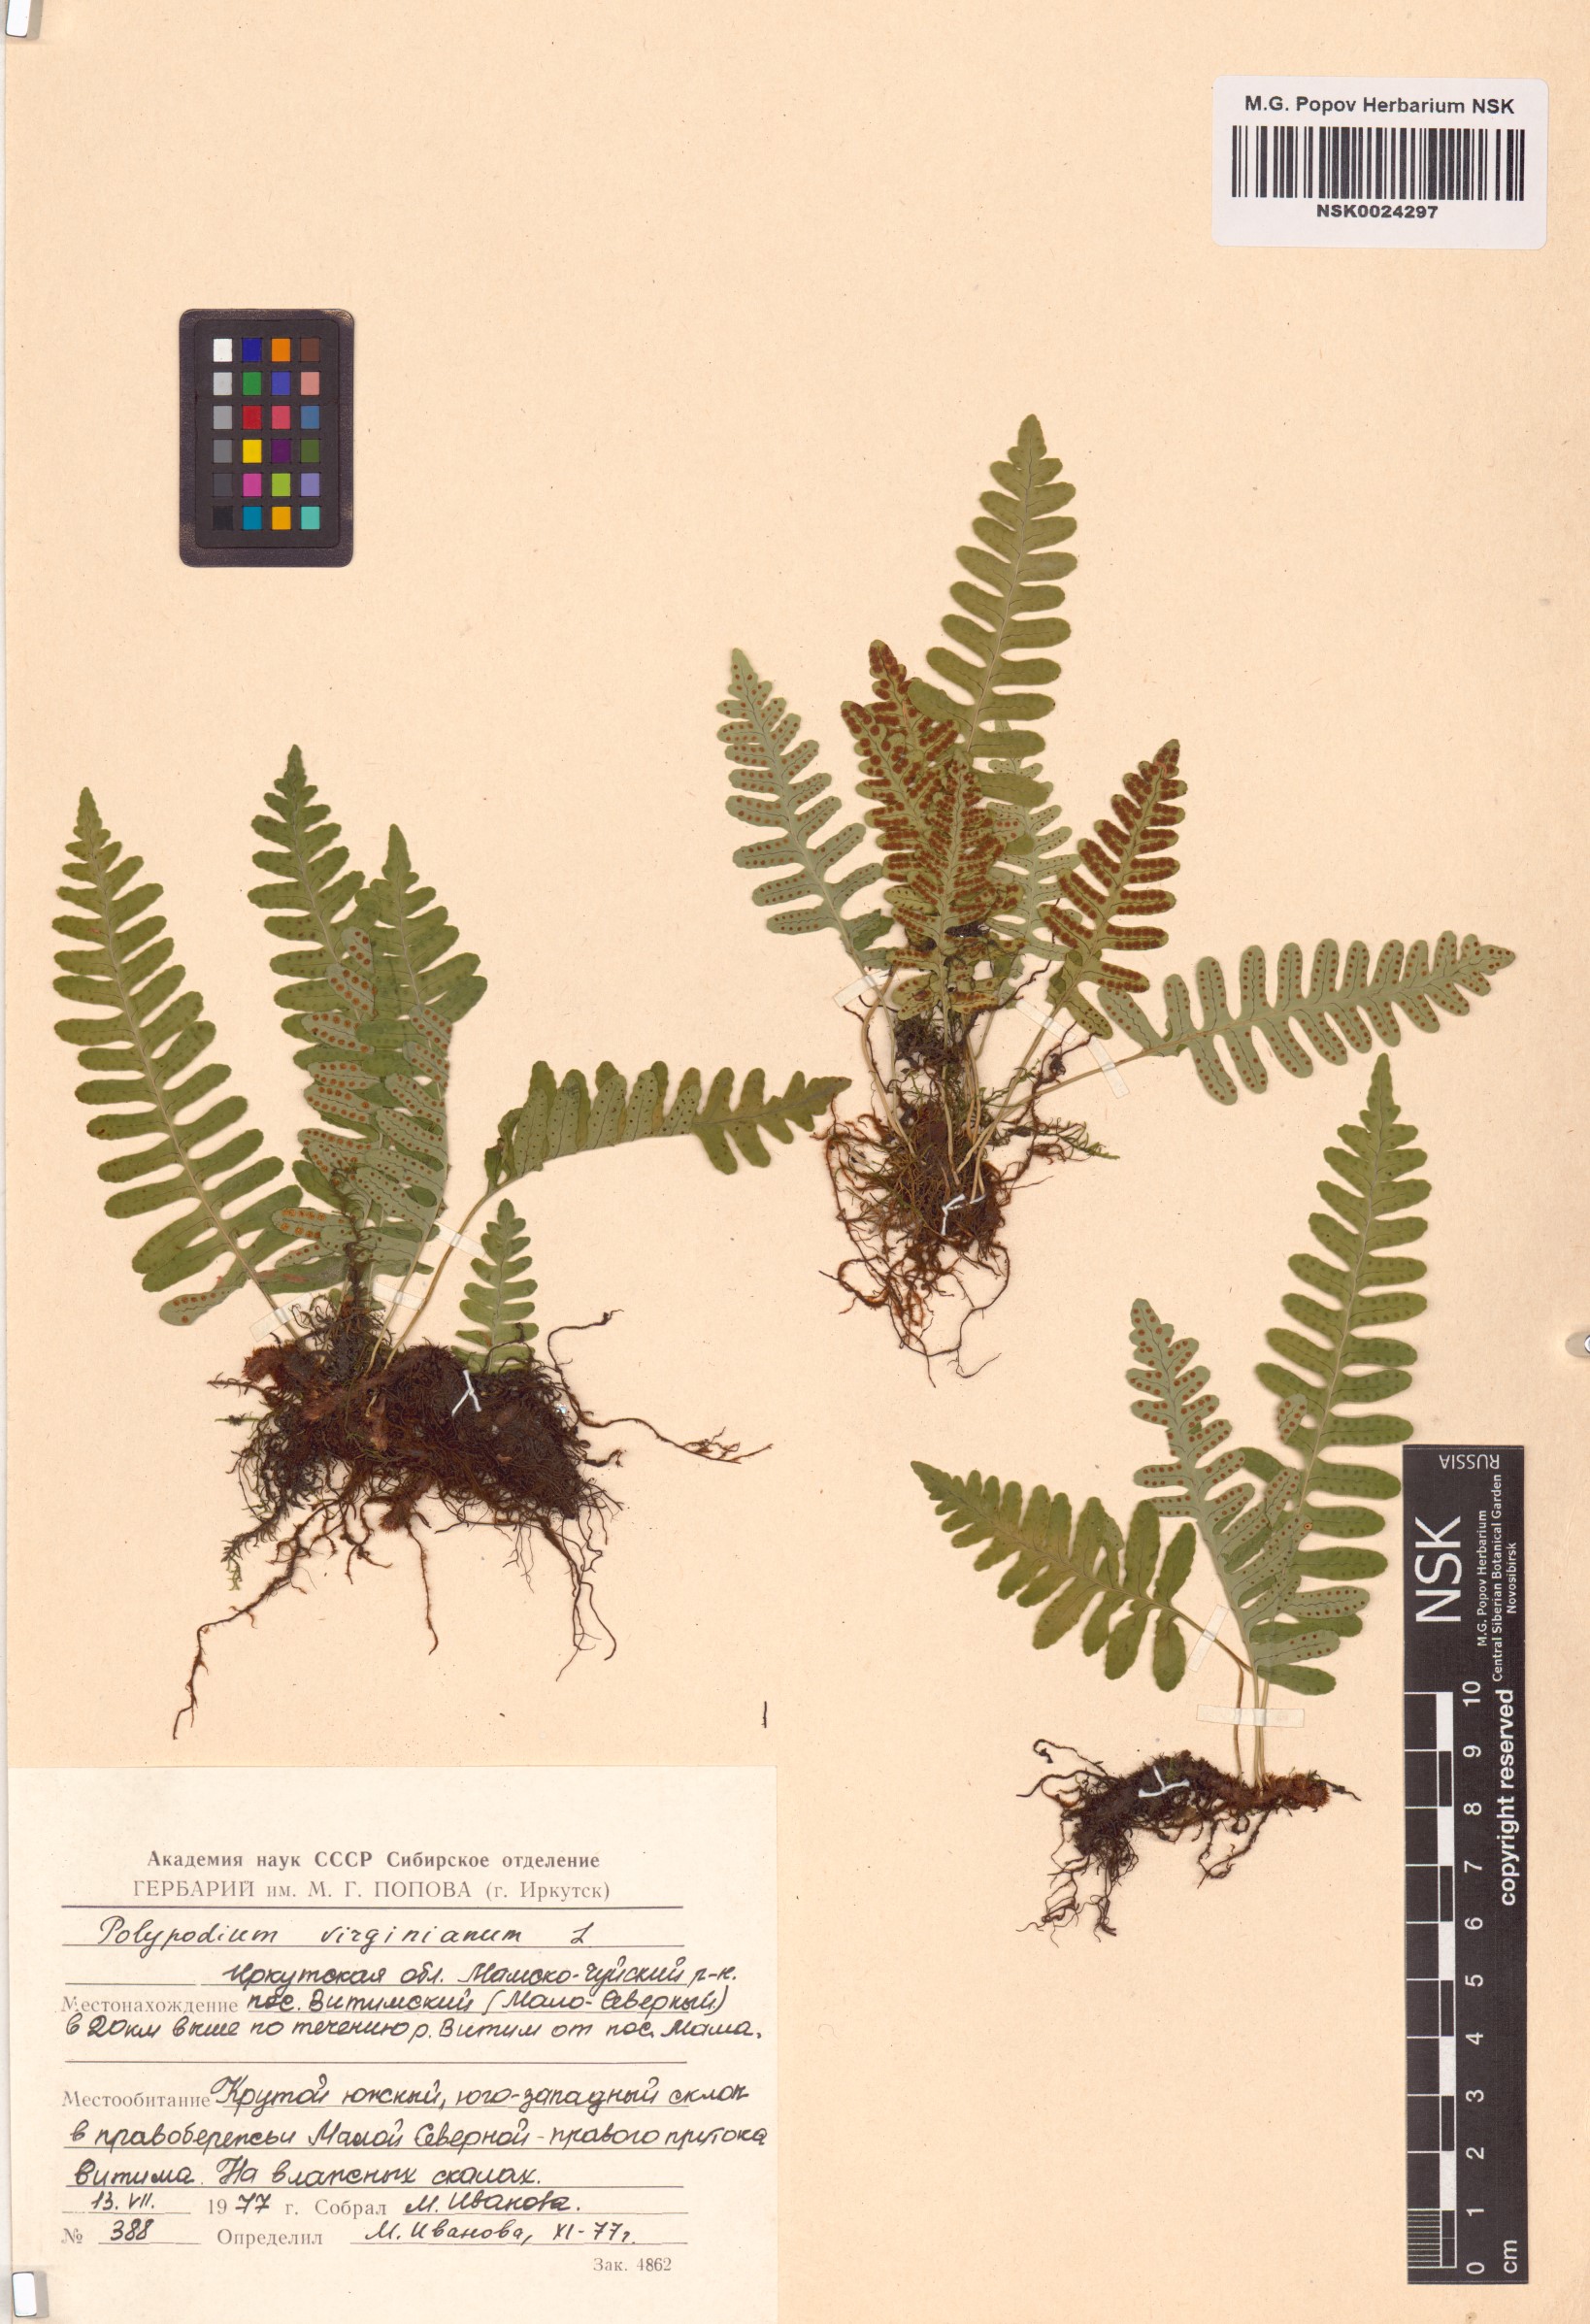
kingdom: Plantae
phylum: Tracheophyta
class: Polypodiopsida
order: Polypodiales
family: Polypodiaceae
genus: Polypodium
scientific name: Polypodium virginianum
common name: American wall fern
